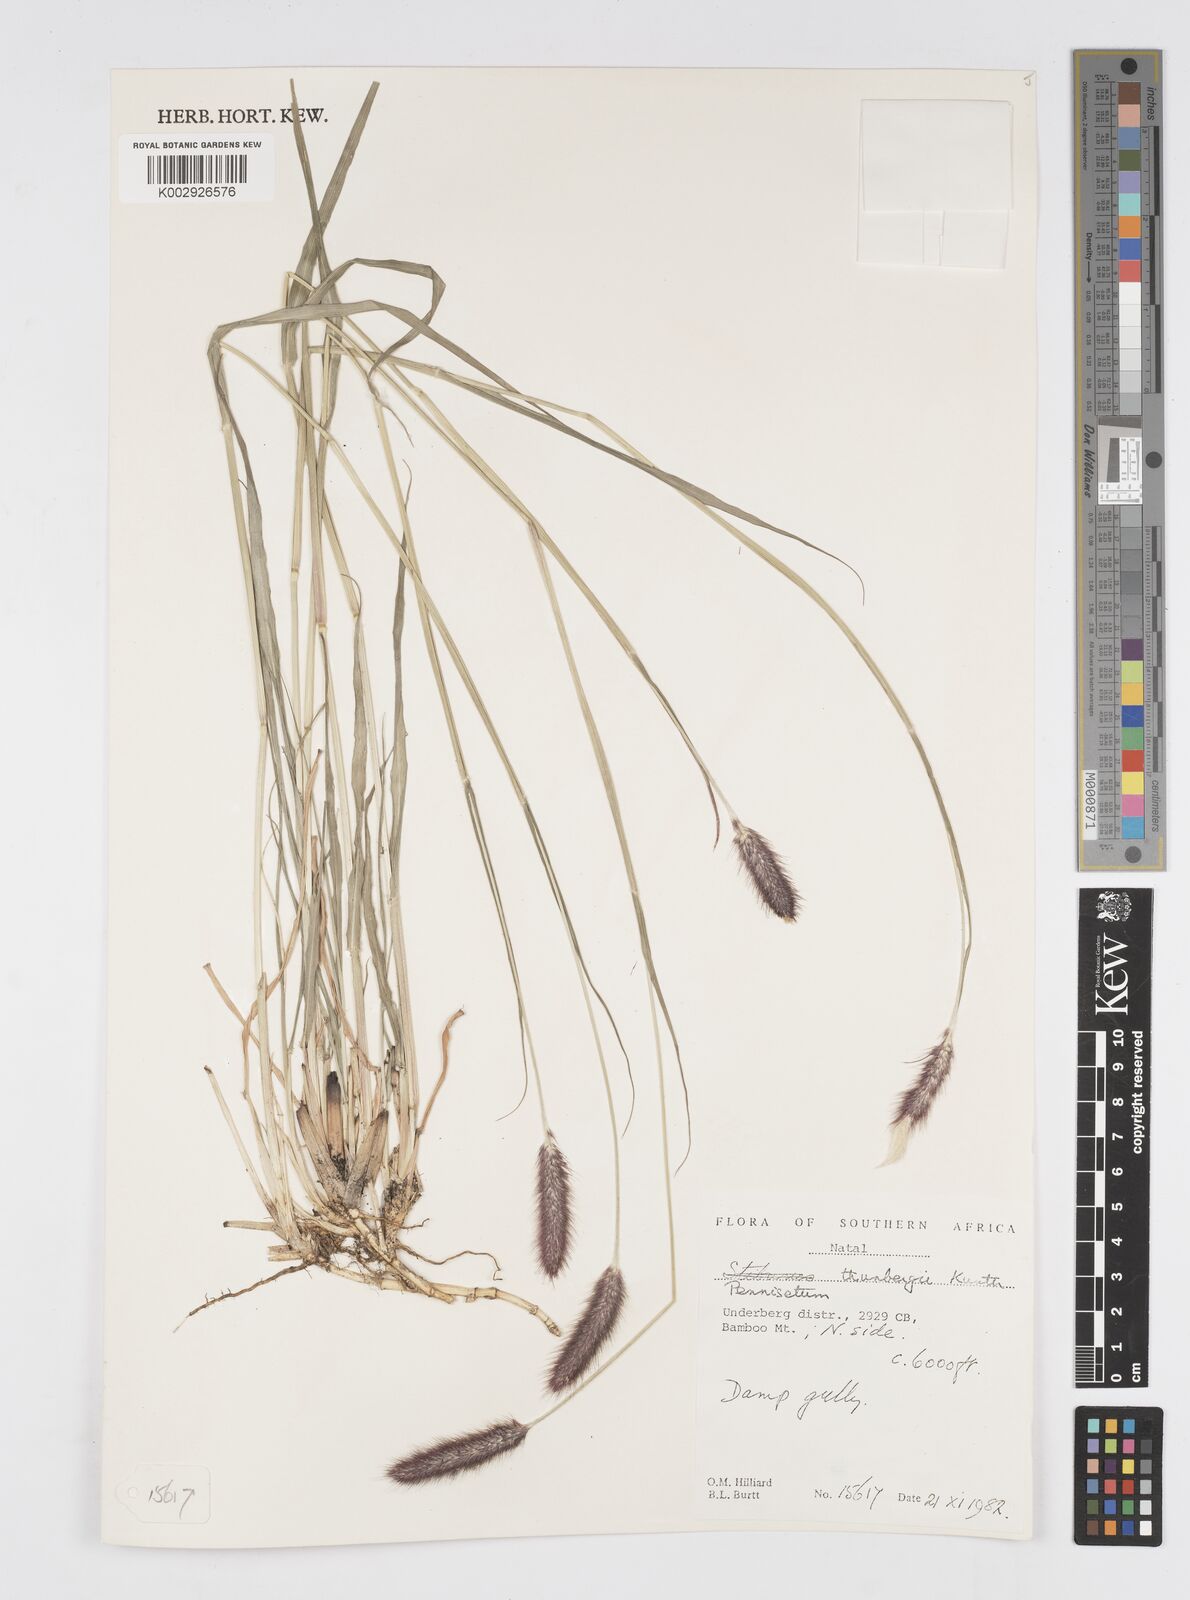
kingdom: Plantae
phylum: Tracheophyta
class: Liliopsida
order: Poales
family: Poaceae
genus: Cenchrus
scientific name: Cenchrus geniculatus
